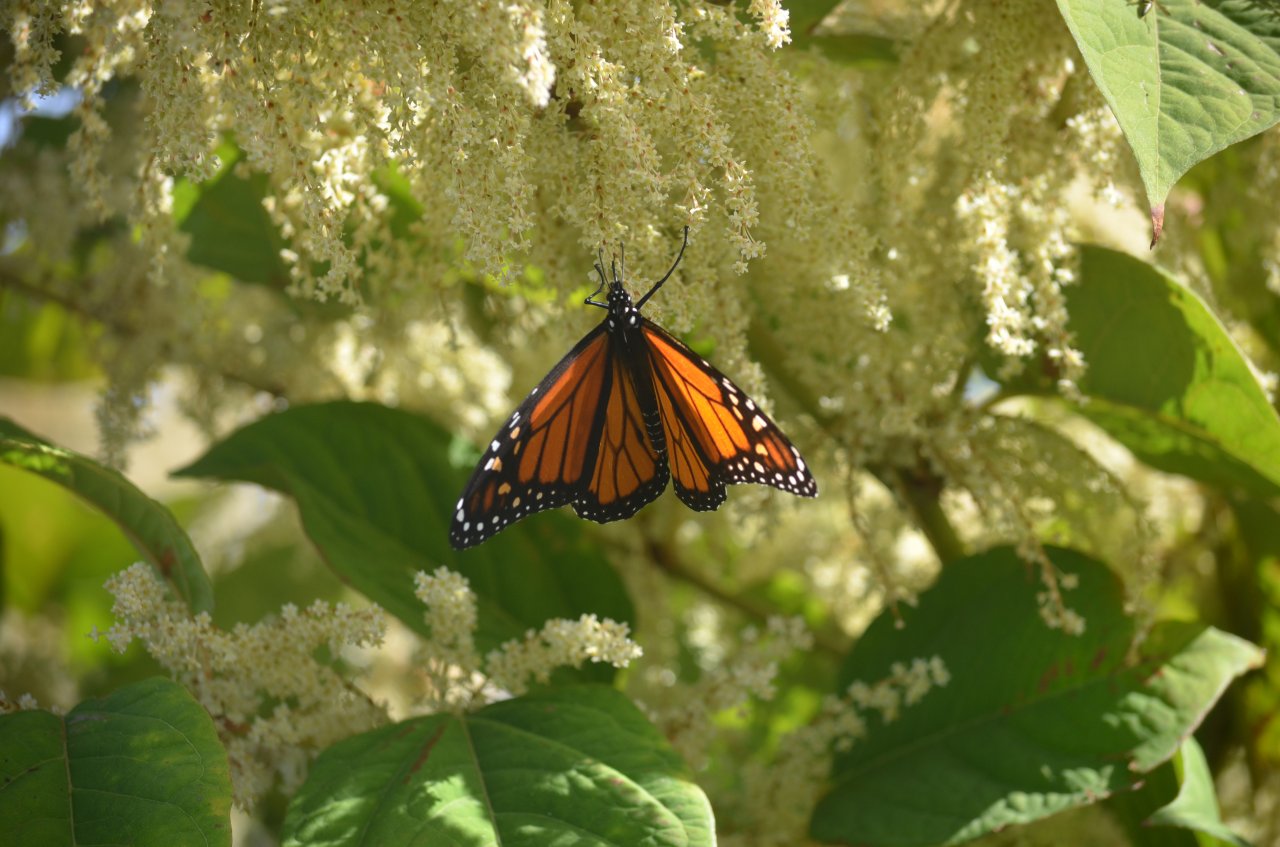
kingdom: Animalia
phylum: Arthropoda
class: Insecta
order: Lepidoptera
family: Nymphalidae
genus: Danaus
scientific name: Danaus plexippus
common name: Monarch
